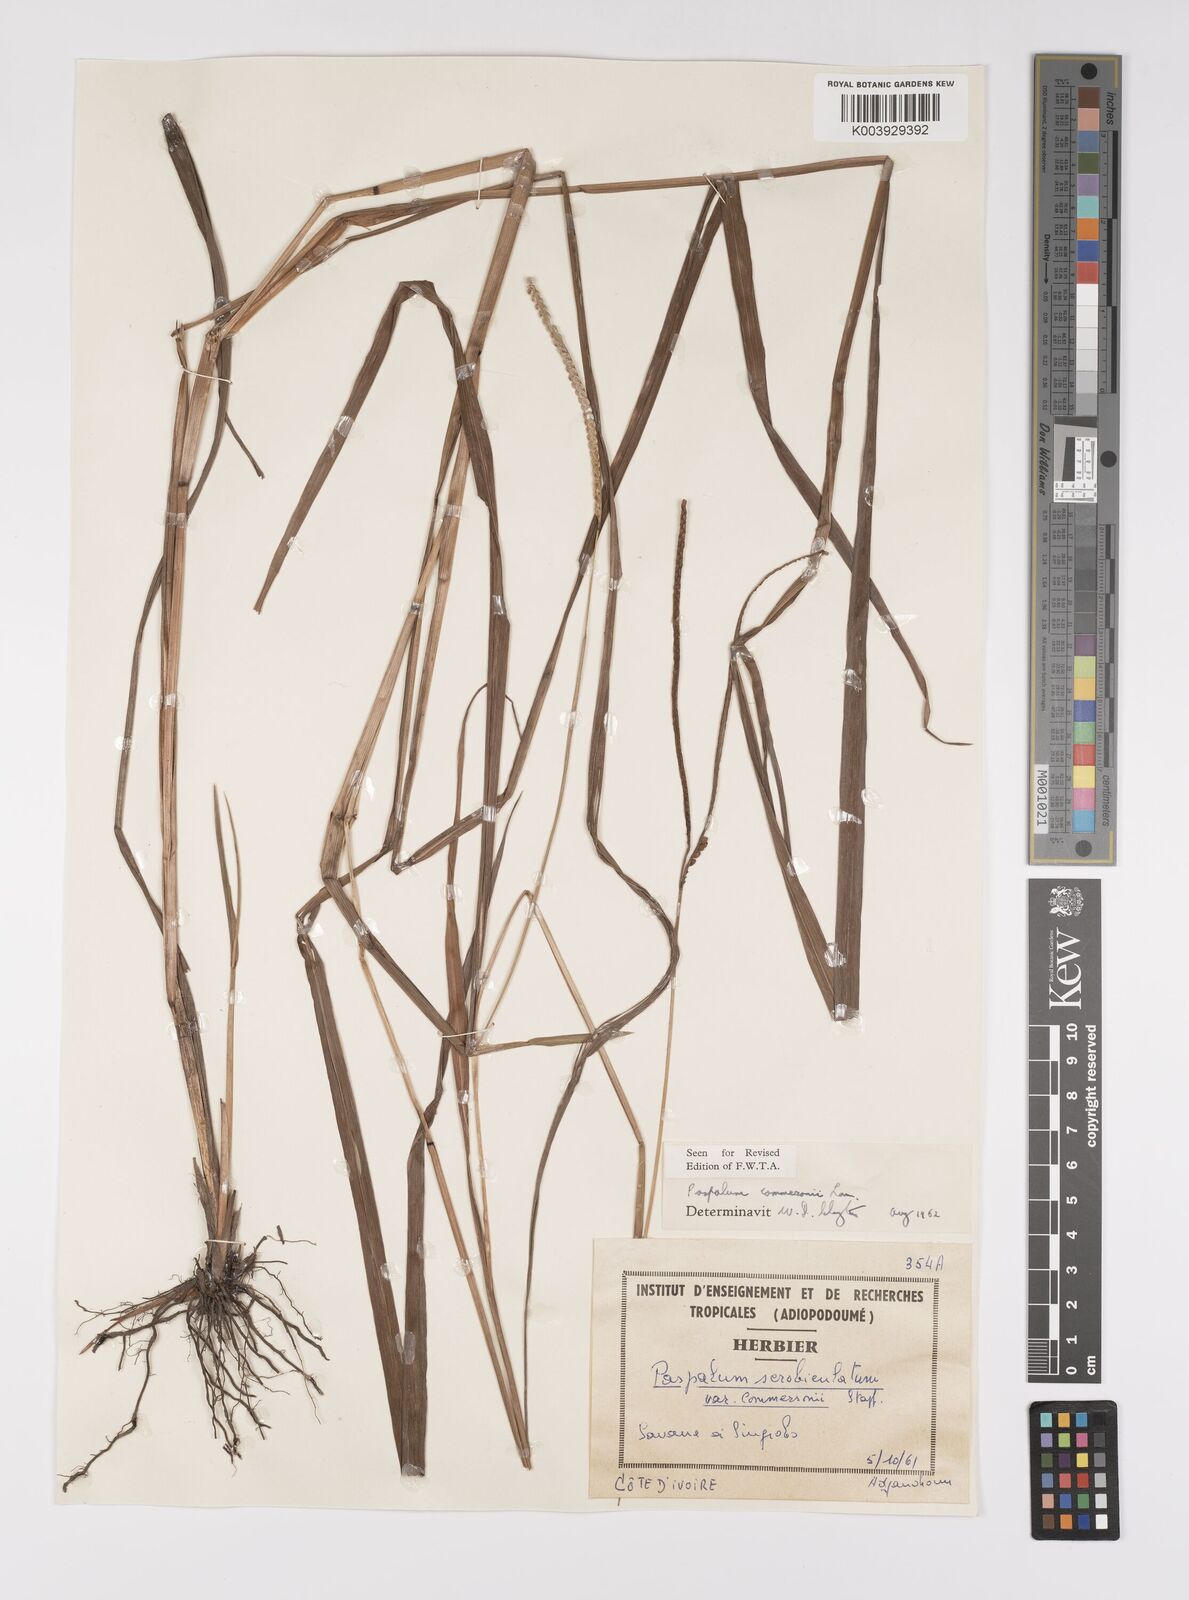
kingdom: Plantae
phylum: Tracheophyta
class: Liliopsida
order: Poales
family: Poaceae
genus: Paspalum
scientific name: Paspalum scrobiculatum
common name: Kodo millet
